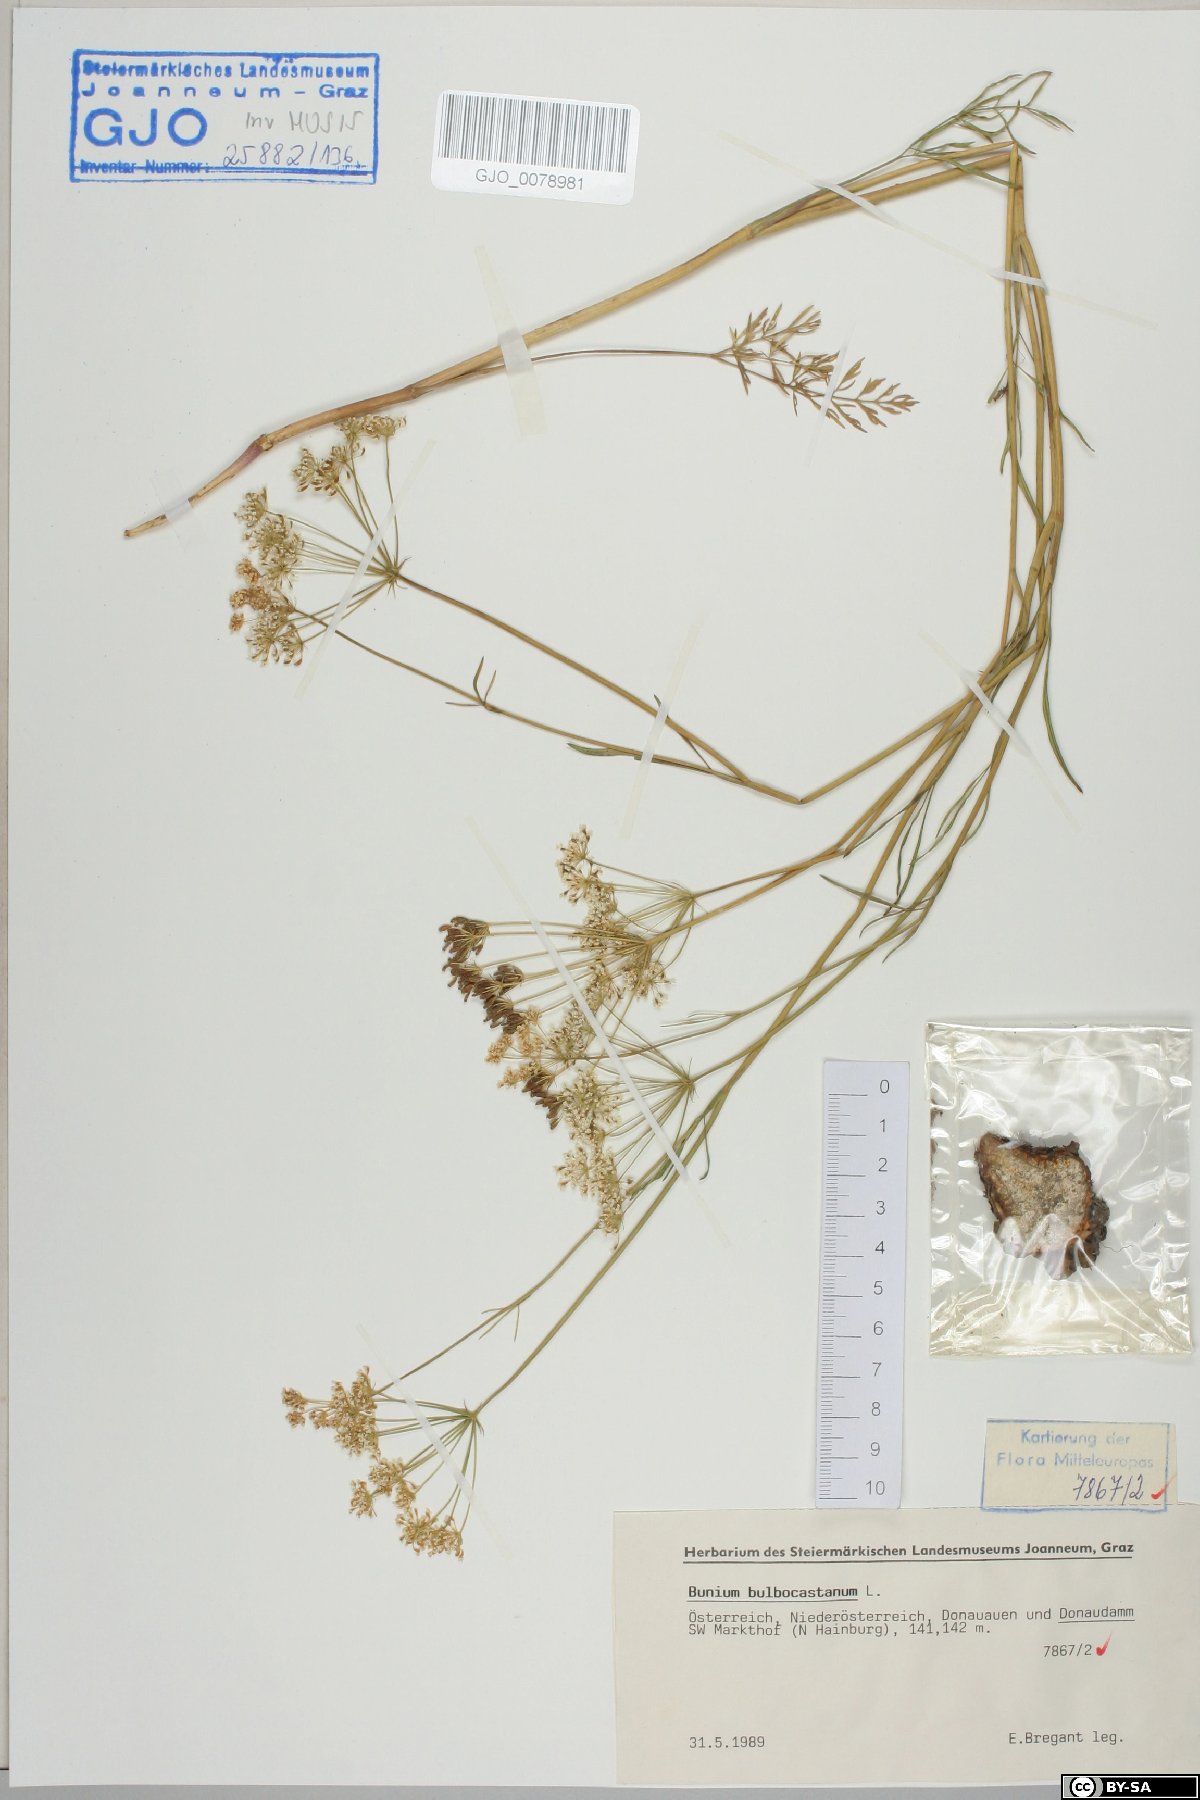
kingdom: Plantae
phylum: Tracheophyta
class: Magnoliopsida
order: Apiales
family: Apiaceae
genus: Bunium
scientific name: Bunium bulbocastanum
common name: Great pignut
